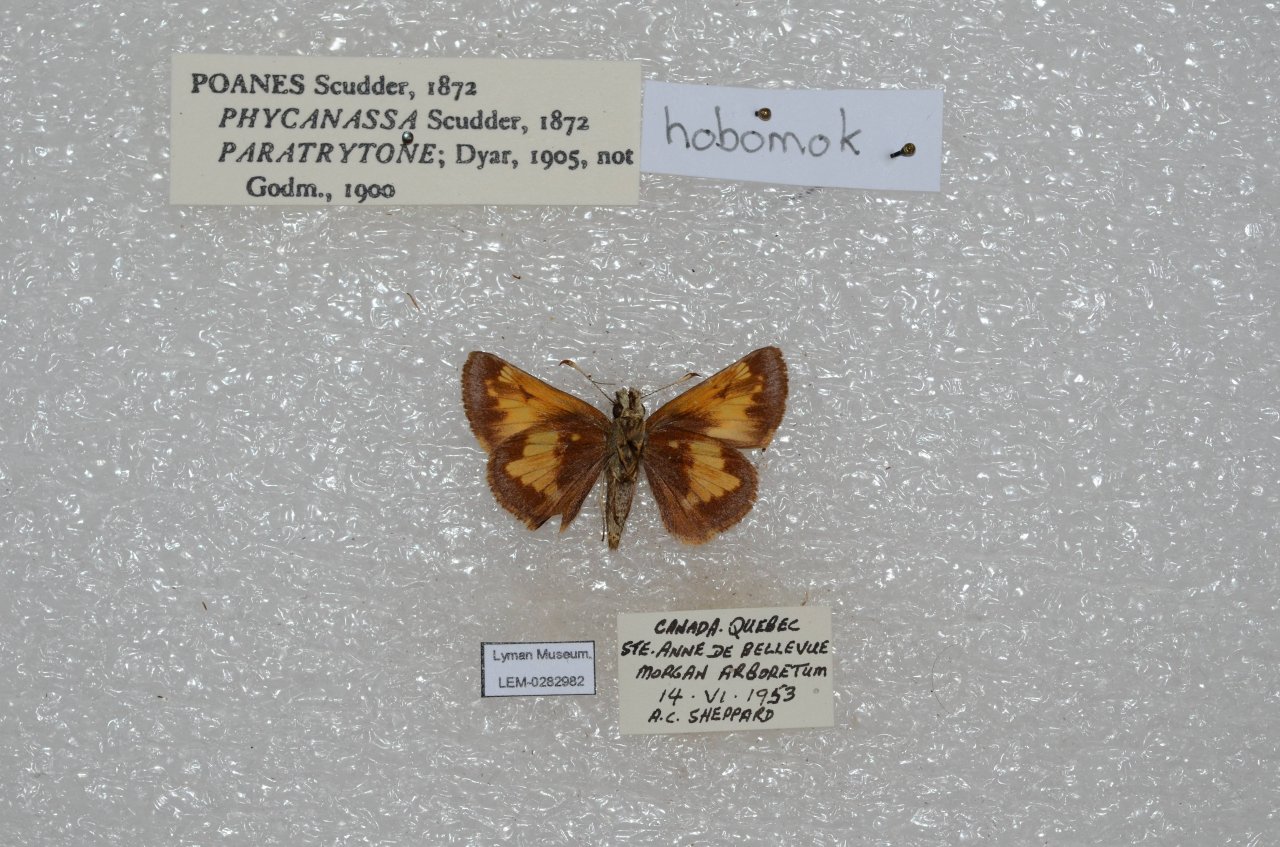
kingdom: Animalia
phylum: Arthropoda
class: Insecta
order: Lepidoptera
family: Hesperiidae
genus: Lon
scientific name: Lon hobomok
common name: Hobomok Skipper
